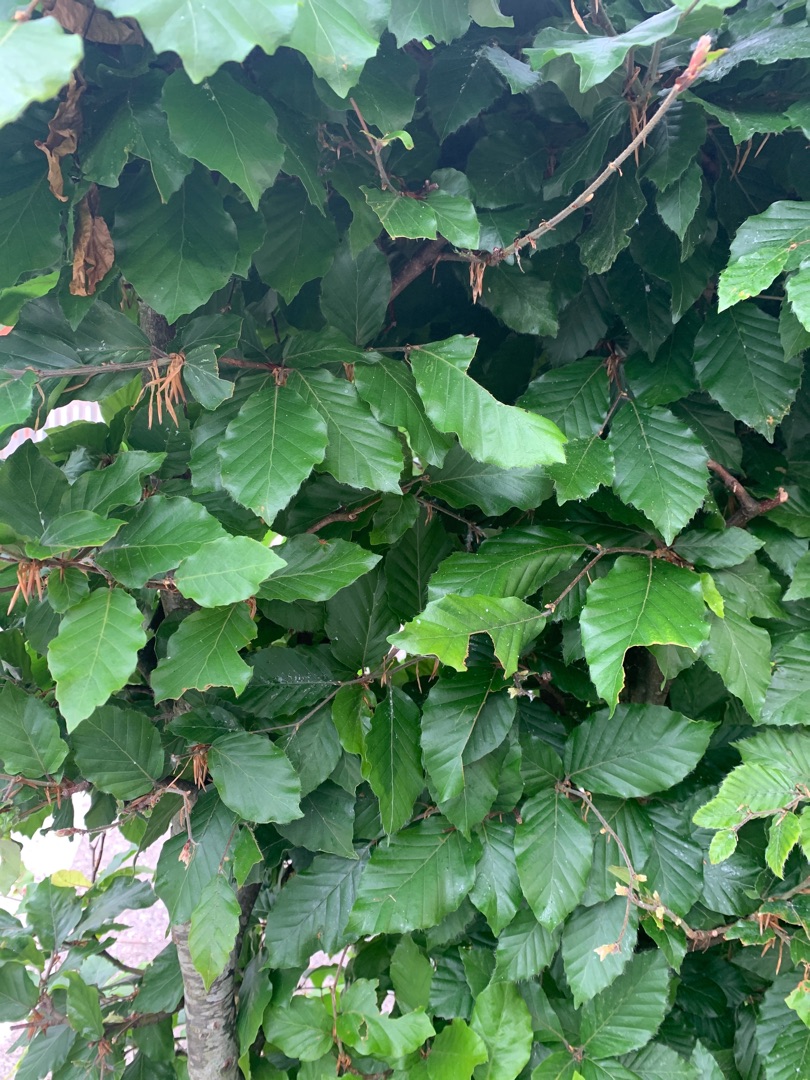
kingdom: Plantae
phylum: Tracheophyta
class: Magnoliopsida
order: Fagales
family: Fagaceae
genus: Fagus
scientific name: Fagus sylvatica
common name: Bøg
